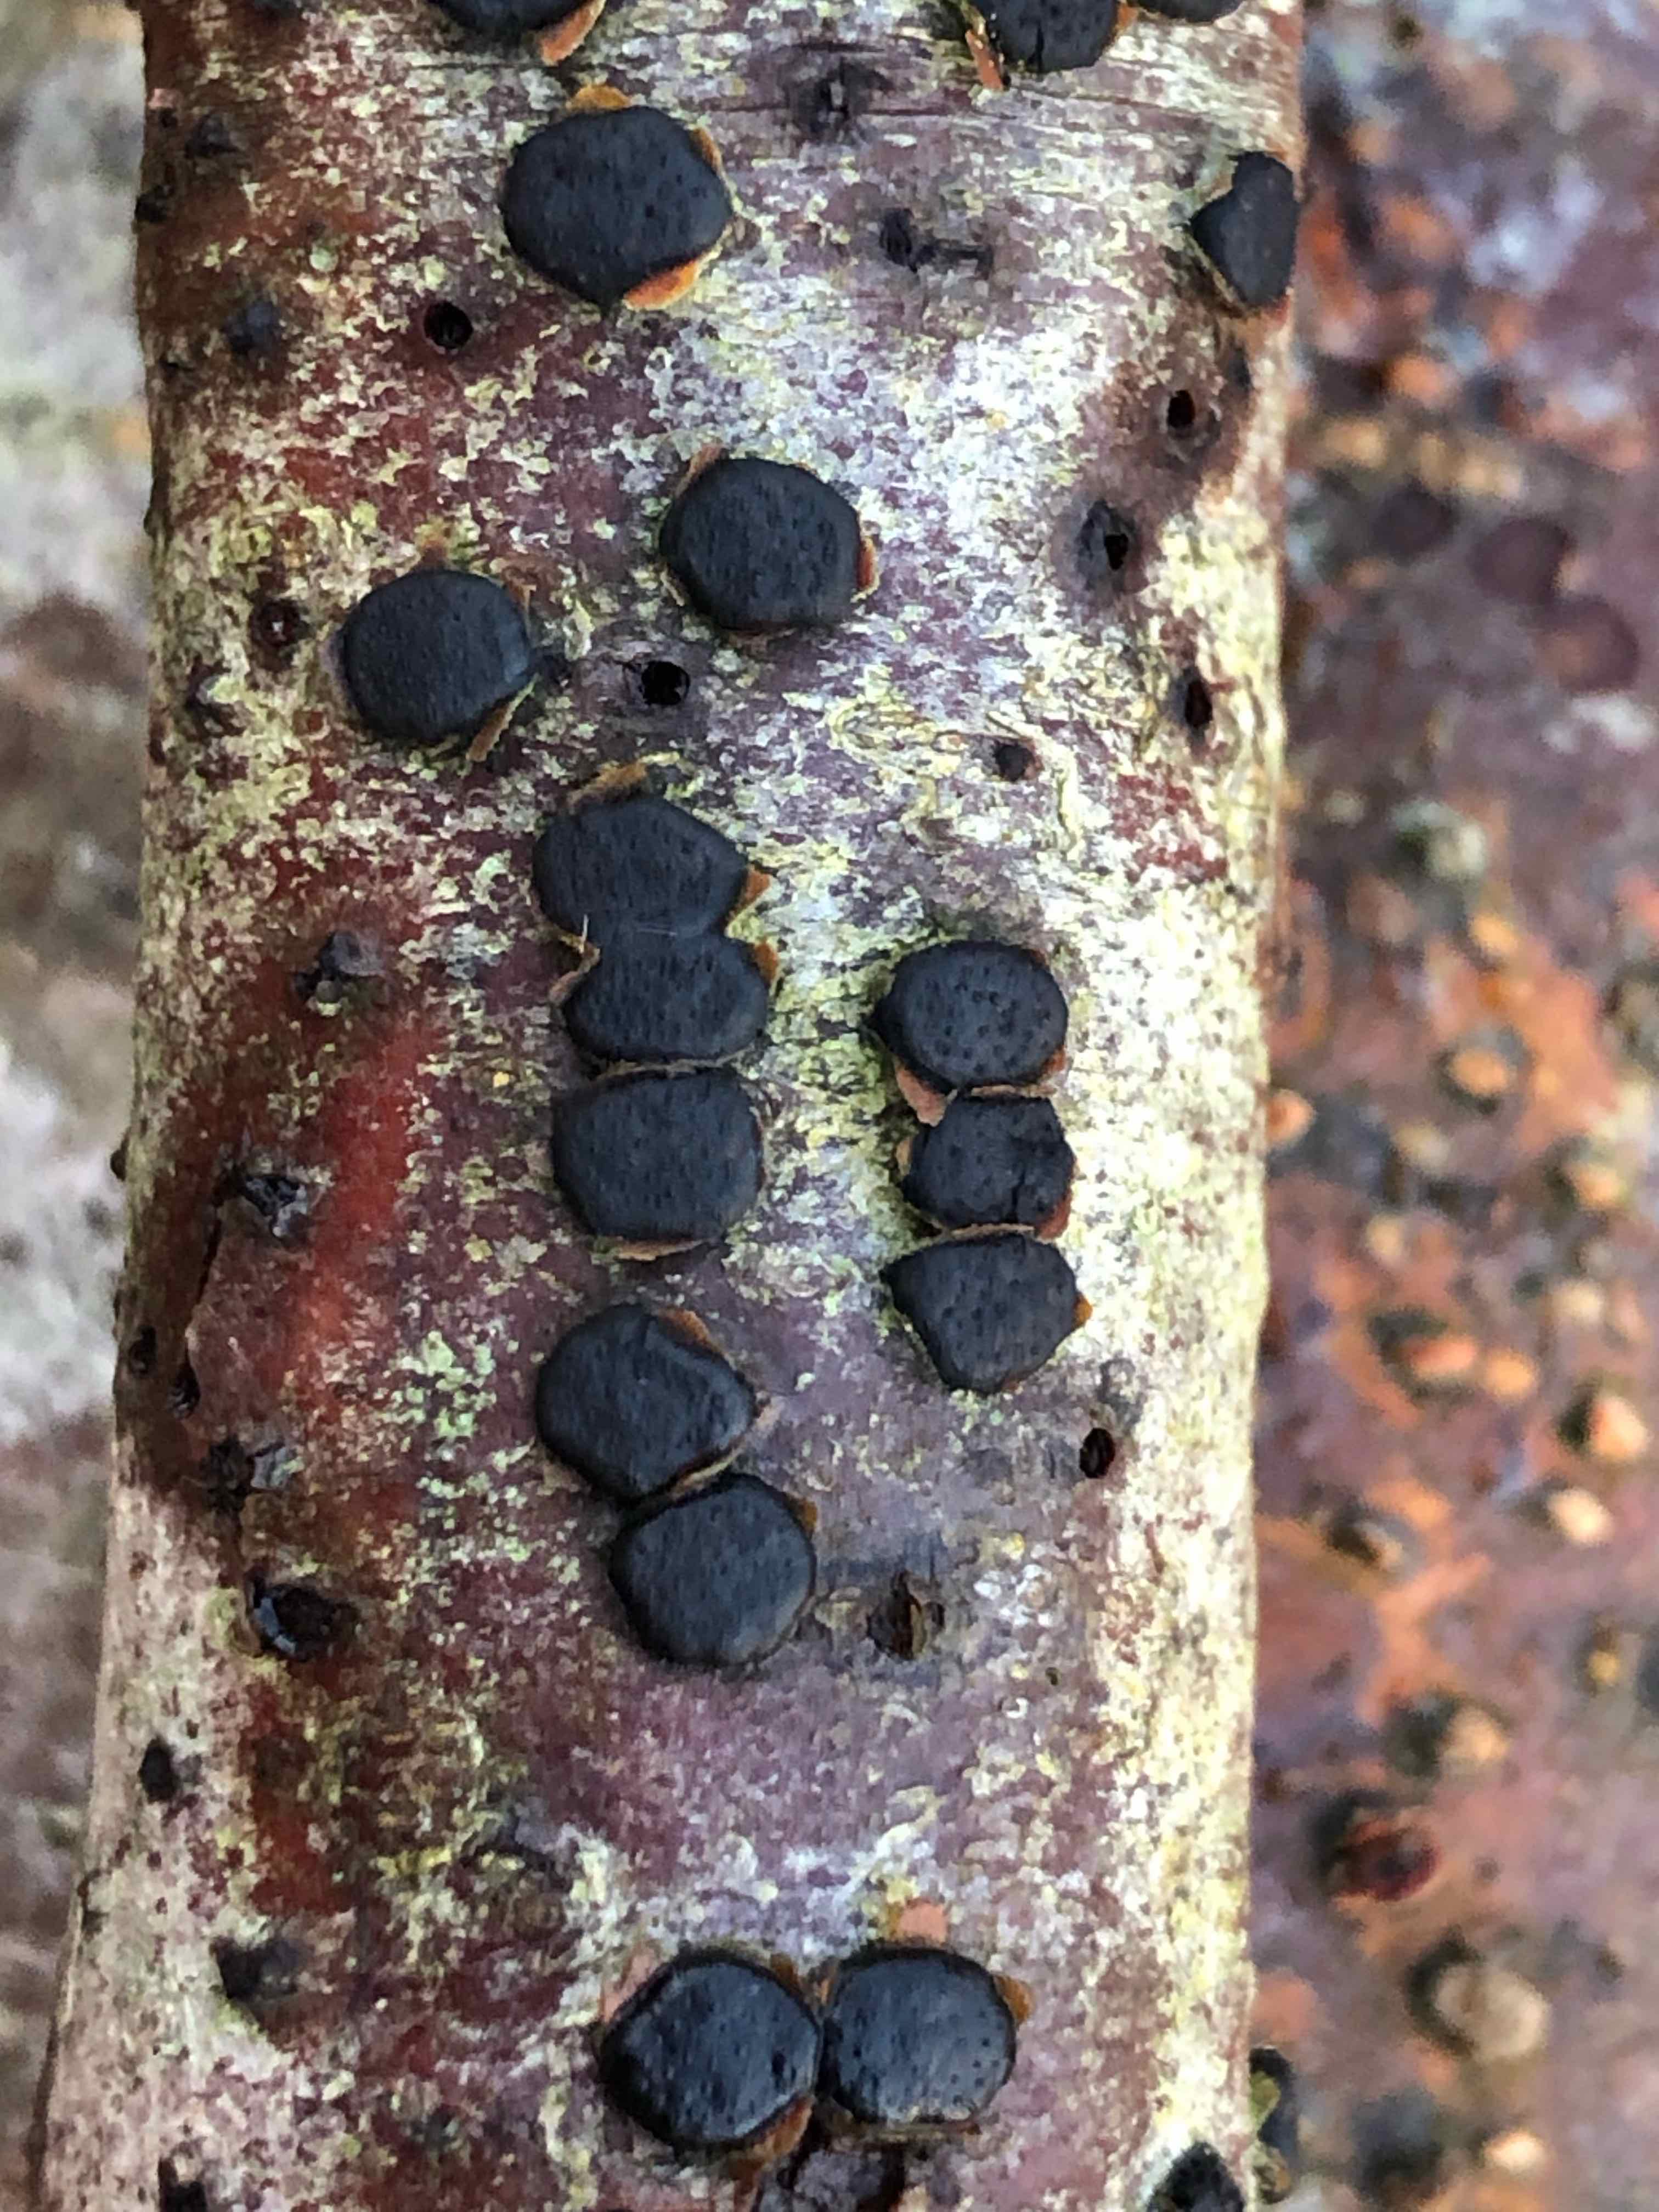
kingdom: Fungi
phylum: Ascomycota
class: Sordariomycetes
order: Xylariales
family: Diatrypaceae
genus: Diatrype
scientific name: Diatrype disciformis
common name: kant-kulskorpe
